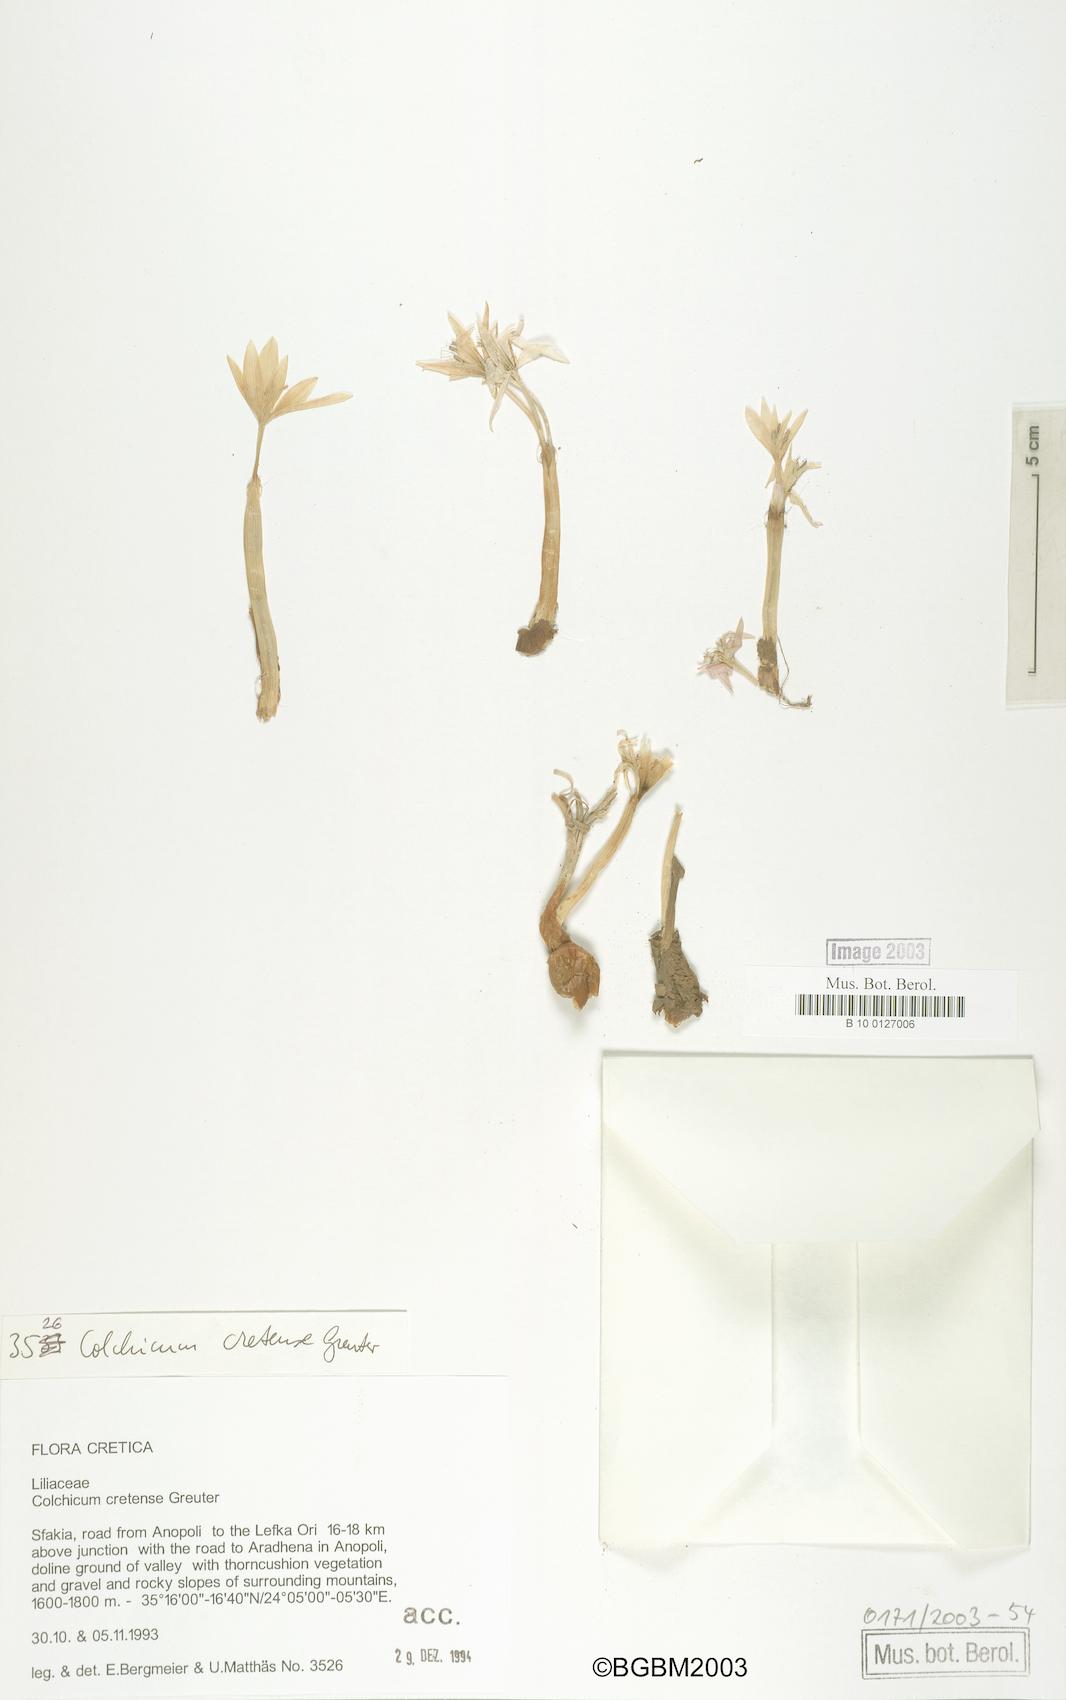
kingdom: Plantae
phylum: Tracheophyta
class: Liliopsida
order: Liliales
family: Colchicaceae
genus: Colchicum
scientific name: Colchicum cretense
